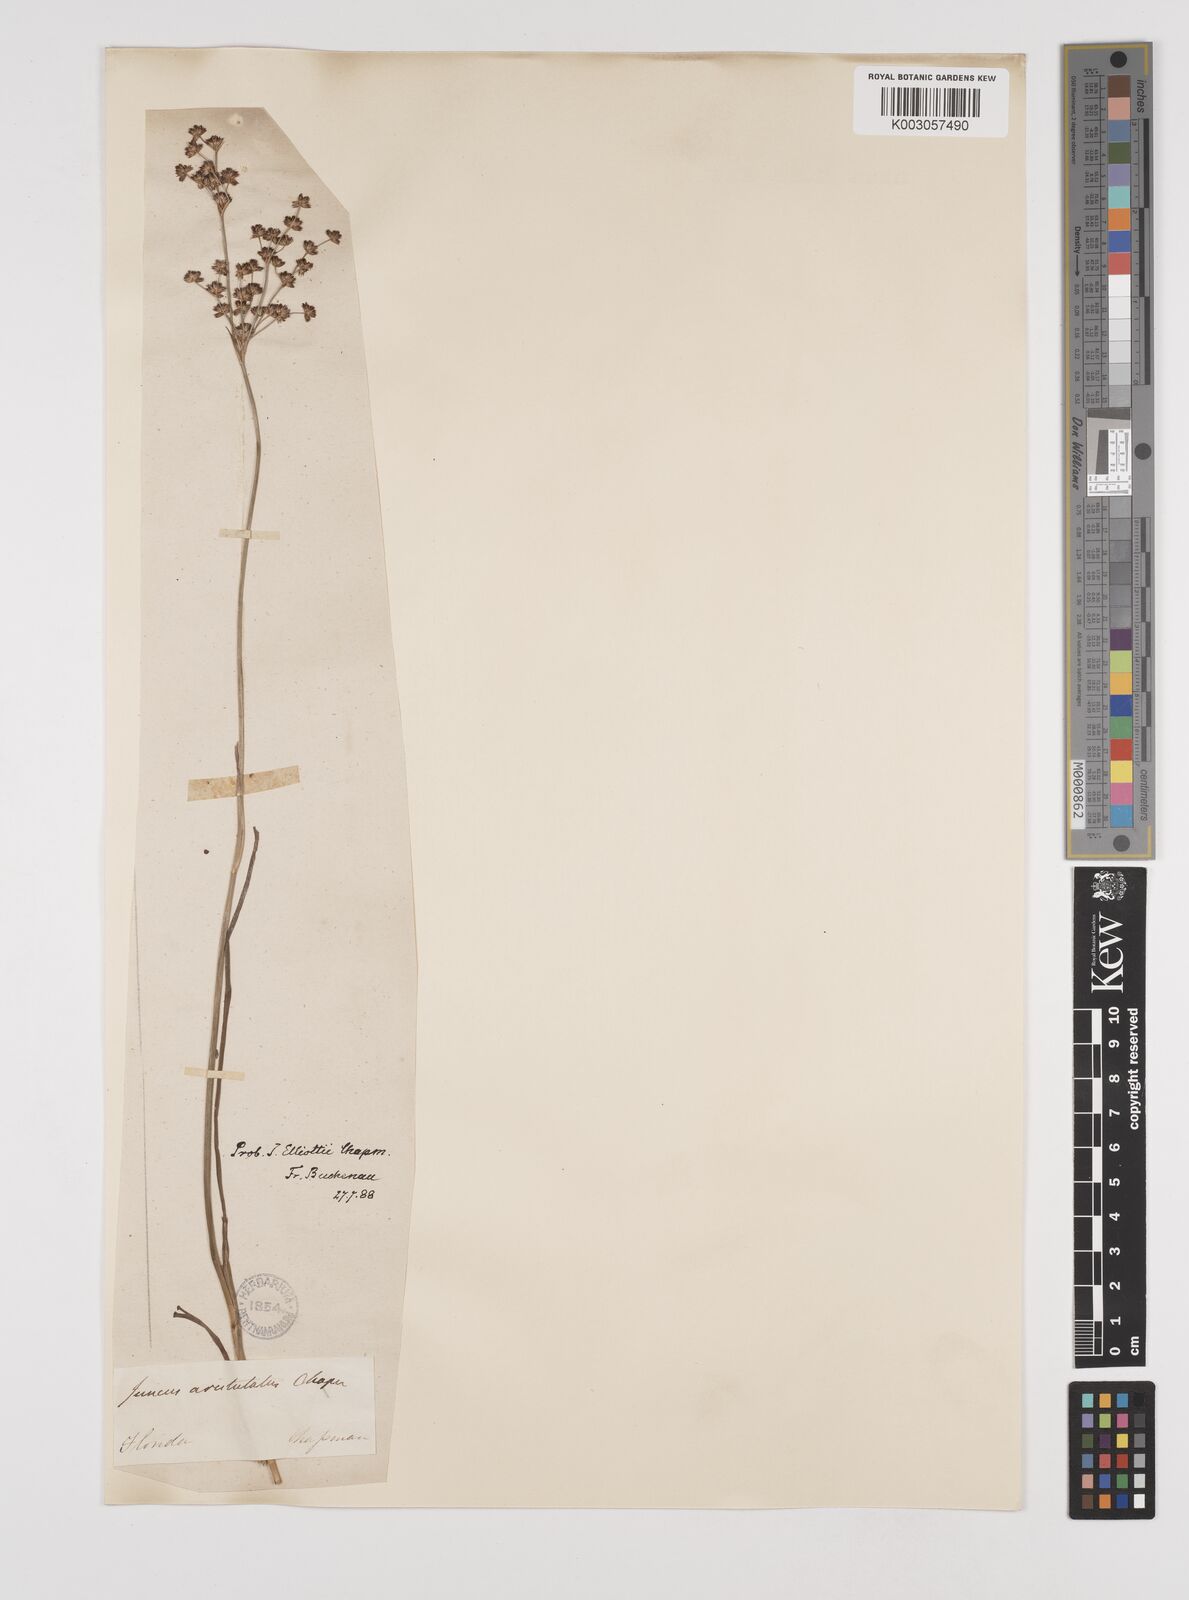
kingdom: Plantae
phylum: Tracheophyta
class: Liliopsida
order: Poales
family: Juncaceae
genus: Juncus
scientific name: Juncus elliottii
